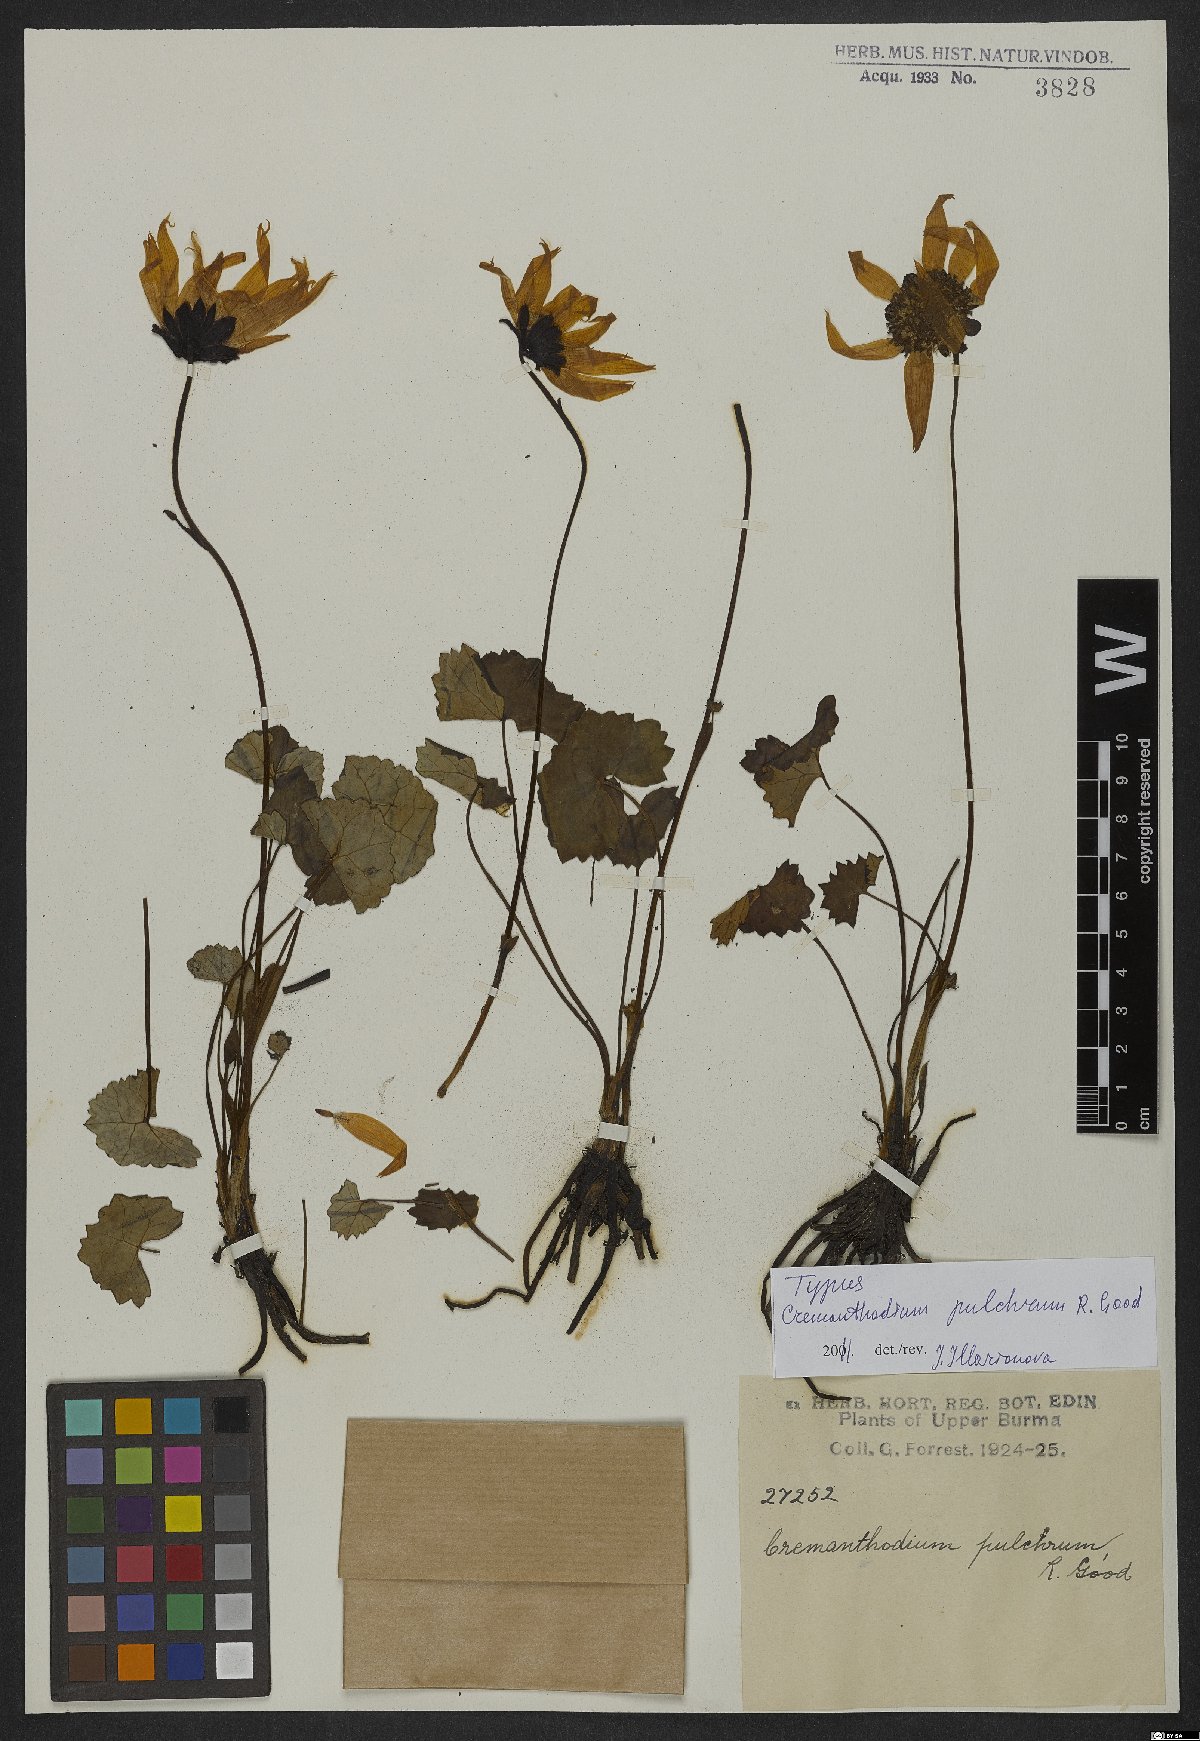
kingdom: Plantae
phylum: Tracheophyta
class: Magnoliopsida
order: Asterales
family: Asteraceae
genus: Cremanthodium
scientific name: Cremanthodium pulchrum
